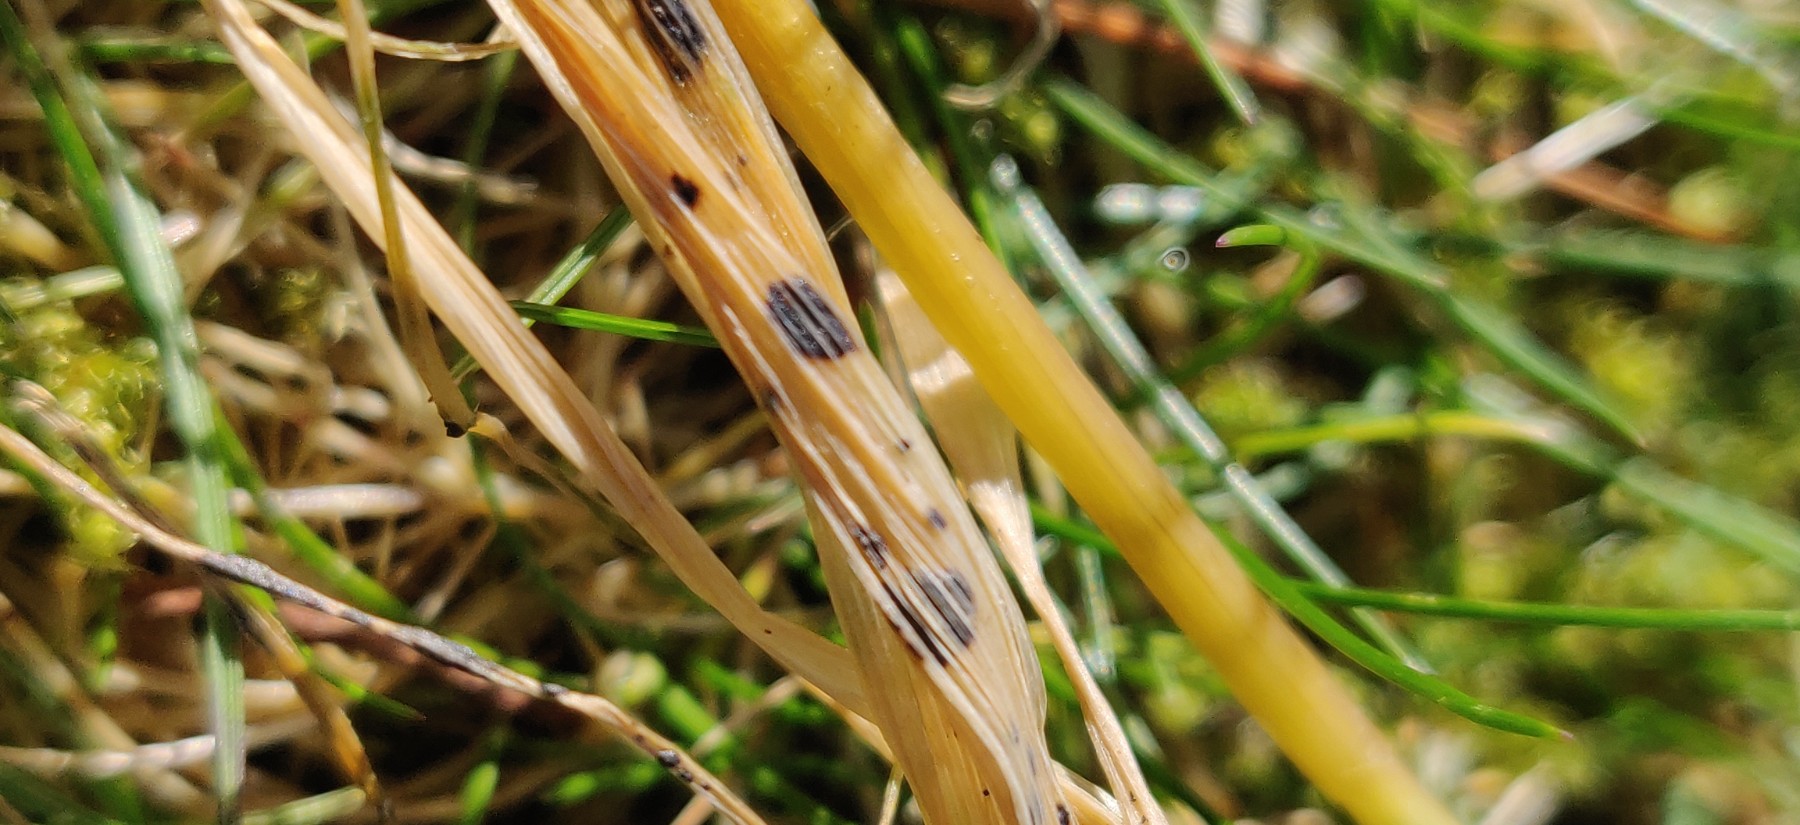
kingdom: Fungi
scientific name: Fungi
